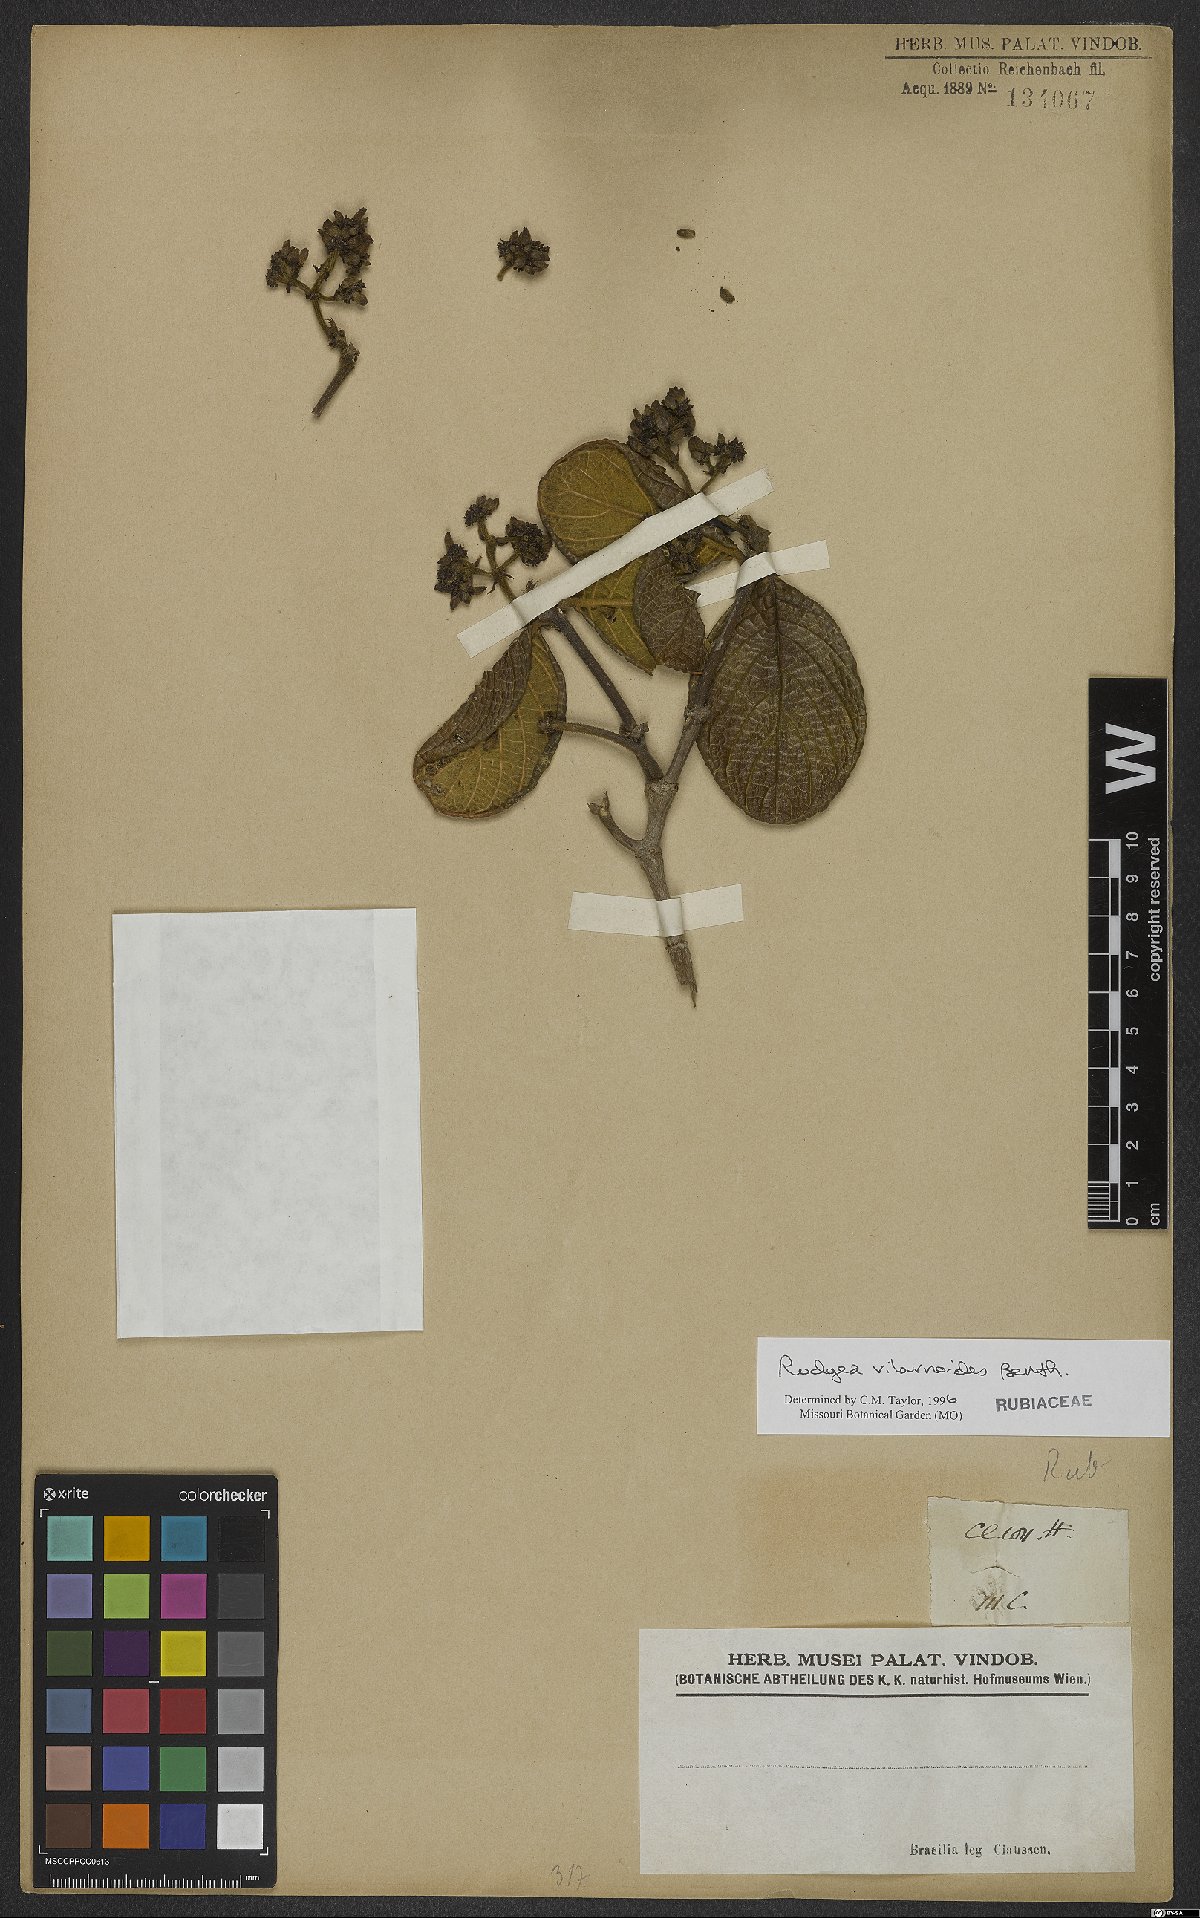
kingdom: Plantae
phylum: Tracheophyta
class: Magnoliopsida
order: Gentianales
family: Rubiaceae
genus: Rudgea
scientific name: Rudgea viburnoides
